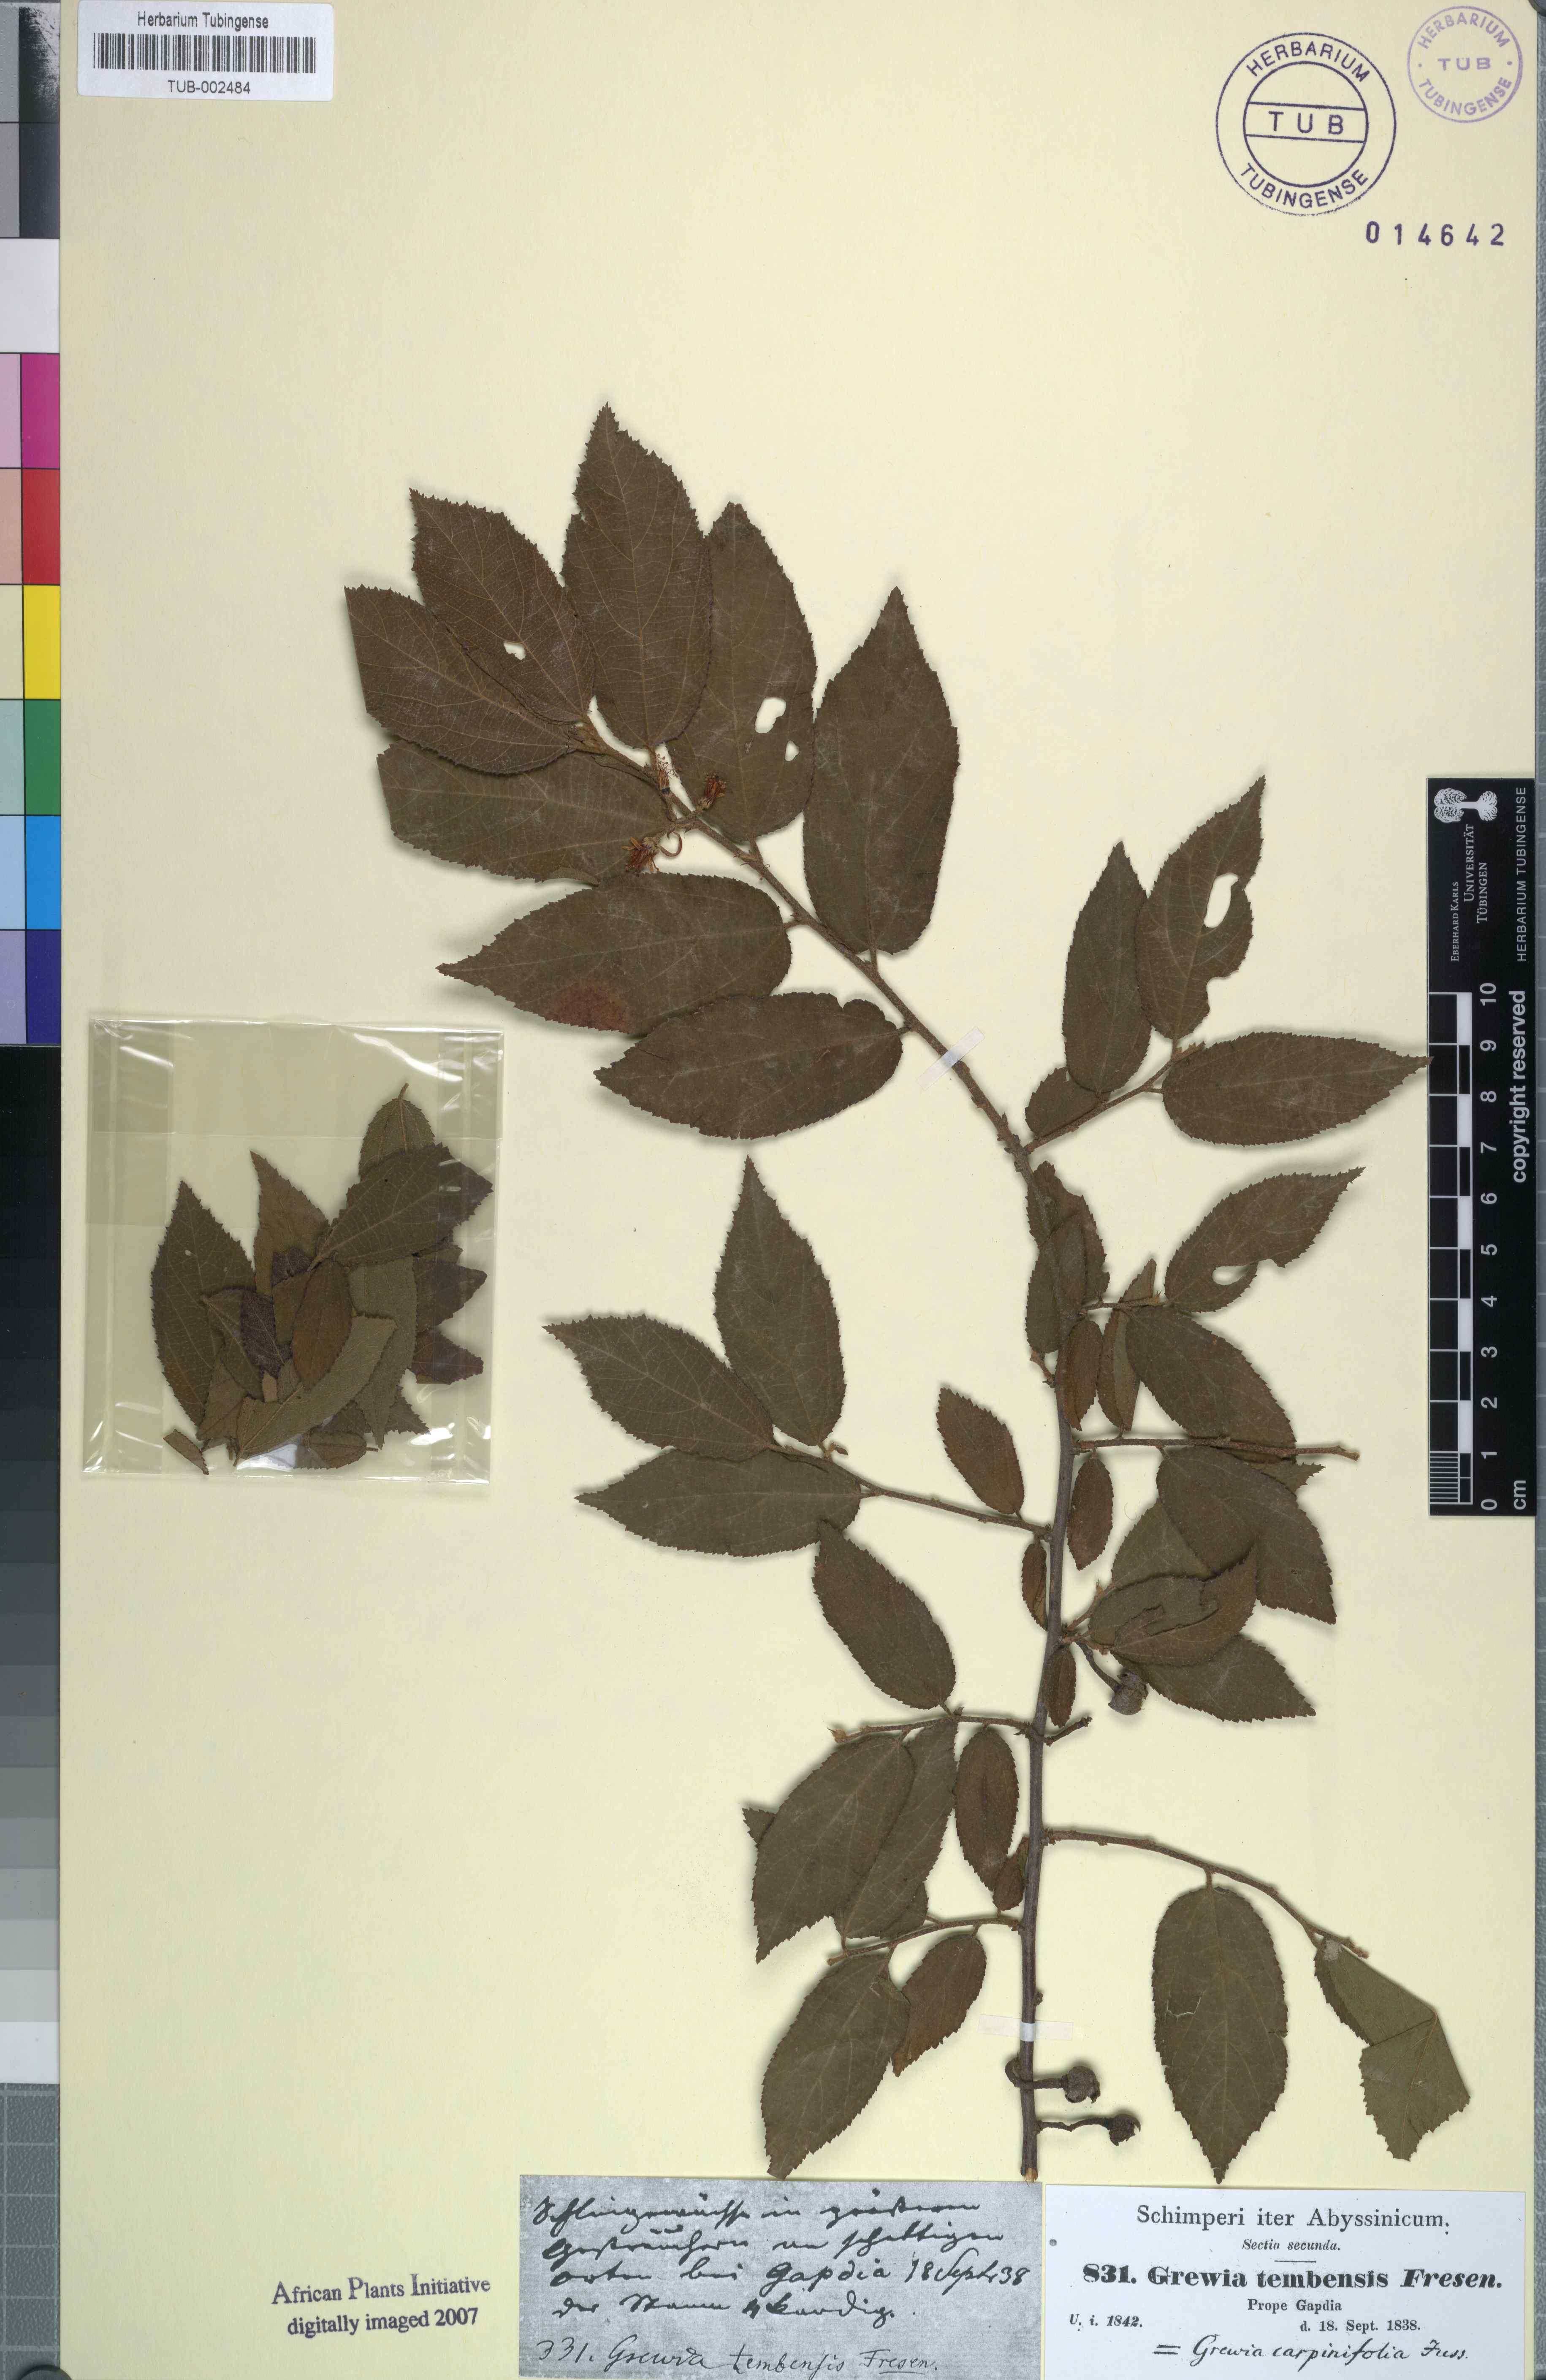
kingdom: Plantae
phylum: Tracheophyta
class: Magnoliopsida
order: Malvales
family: Malvaceae
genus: Grewia
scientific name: Grewia carpinifolia
